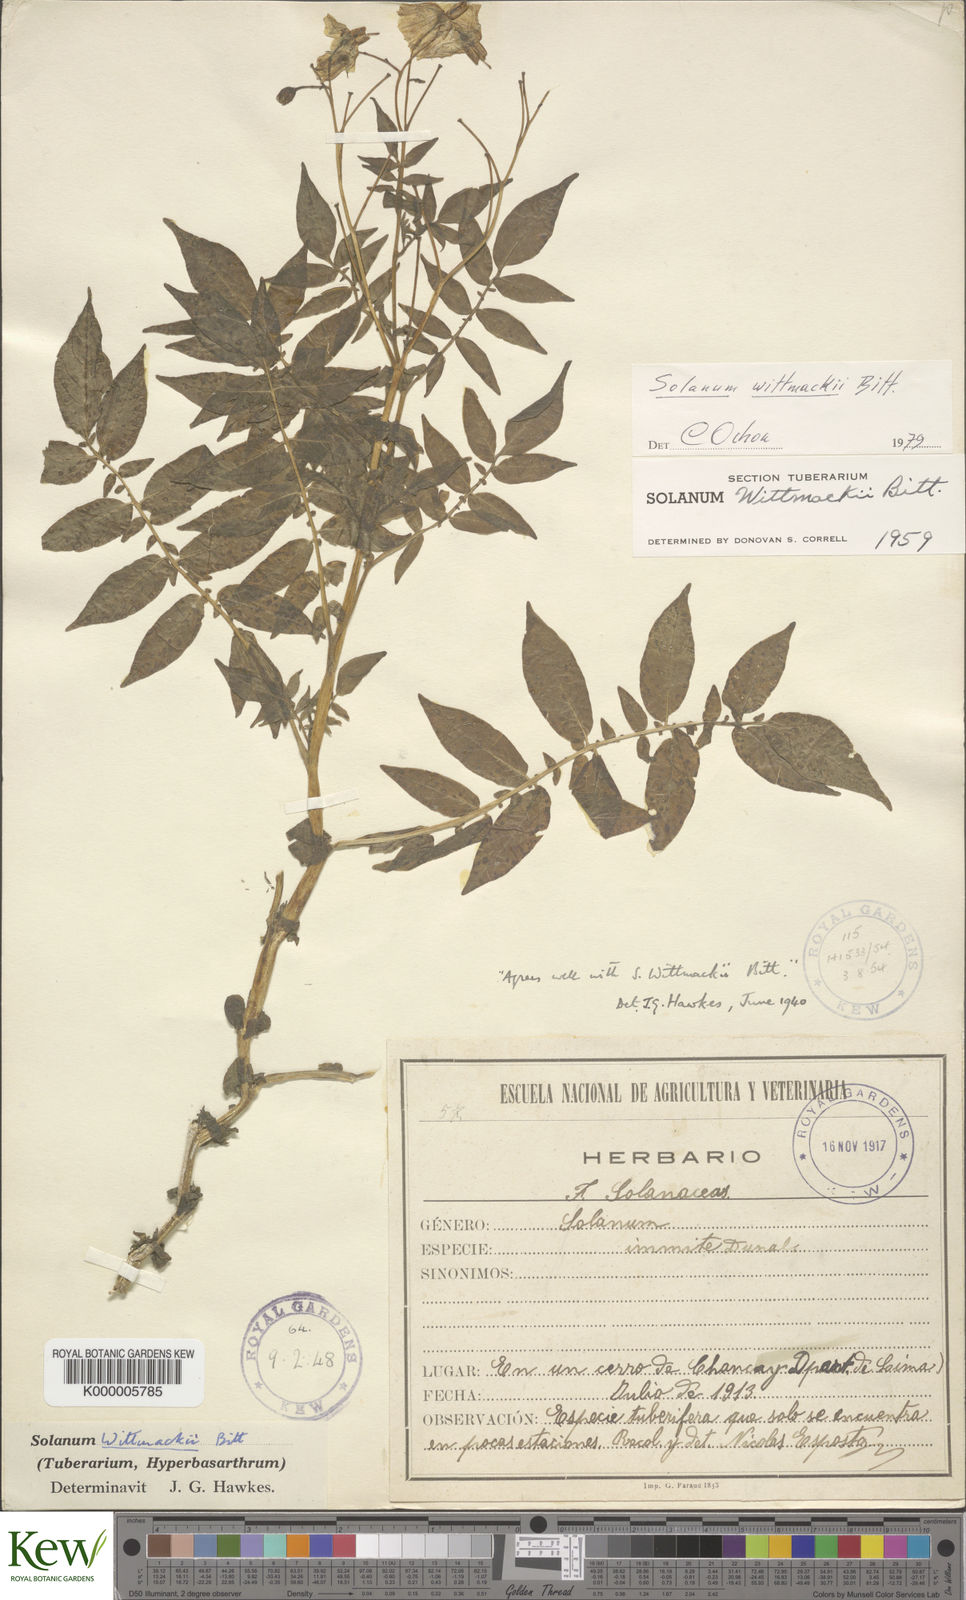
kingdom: Plantae
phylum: Tracheophyta
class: Magnoliopsida
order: Solanales
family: Solanaceae
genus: Solanum
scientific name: Solanum wittmackii
